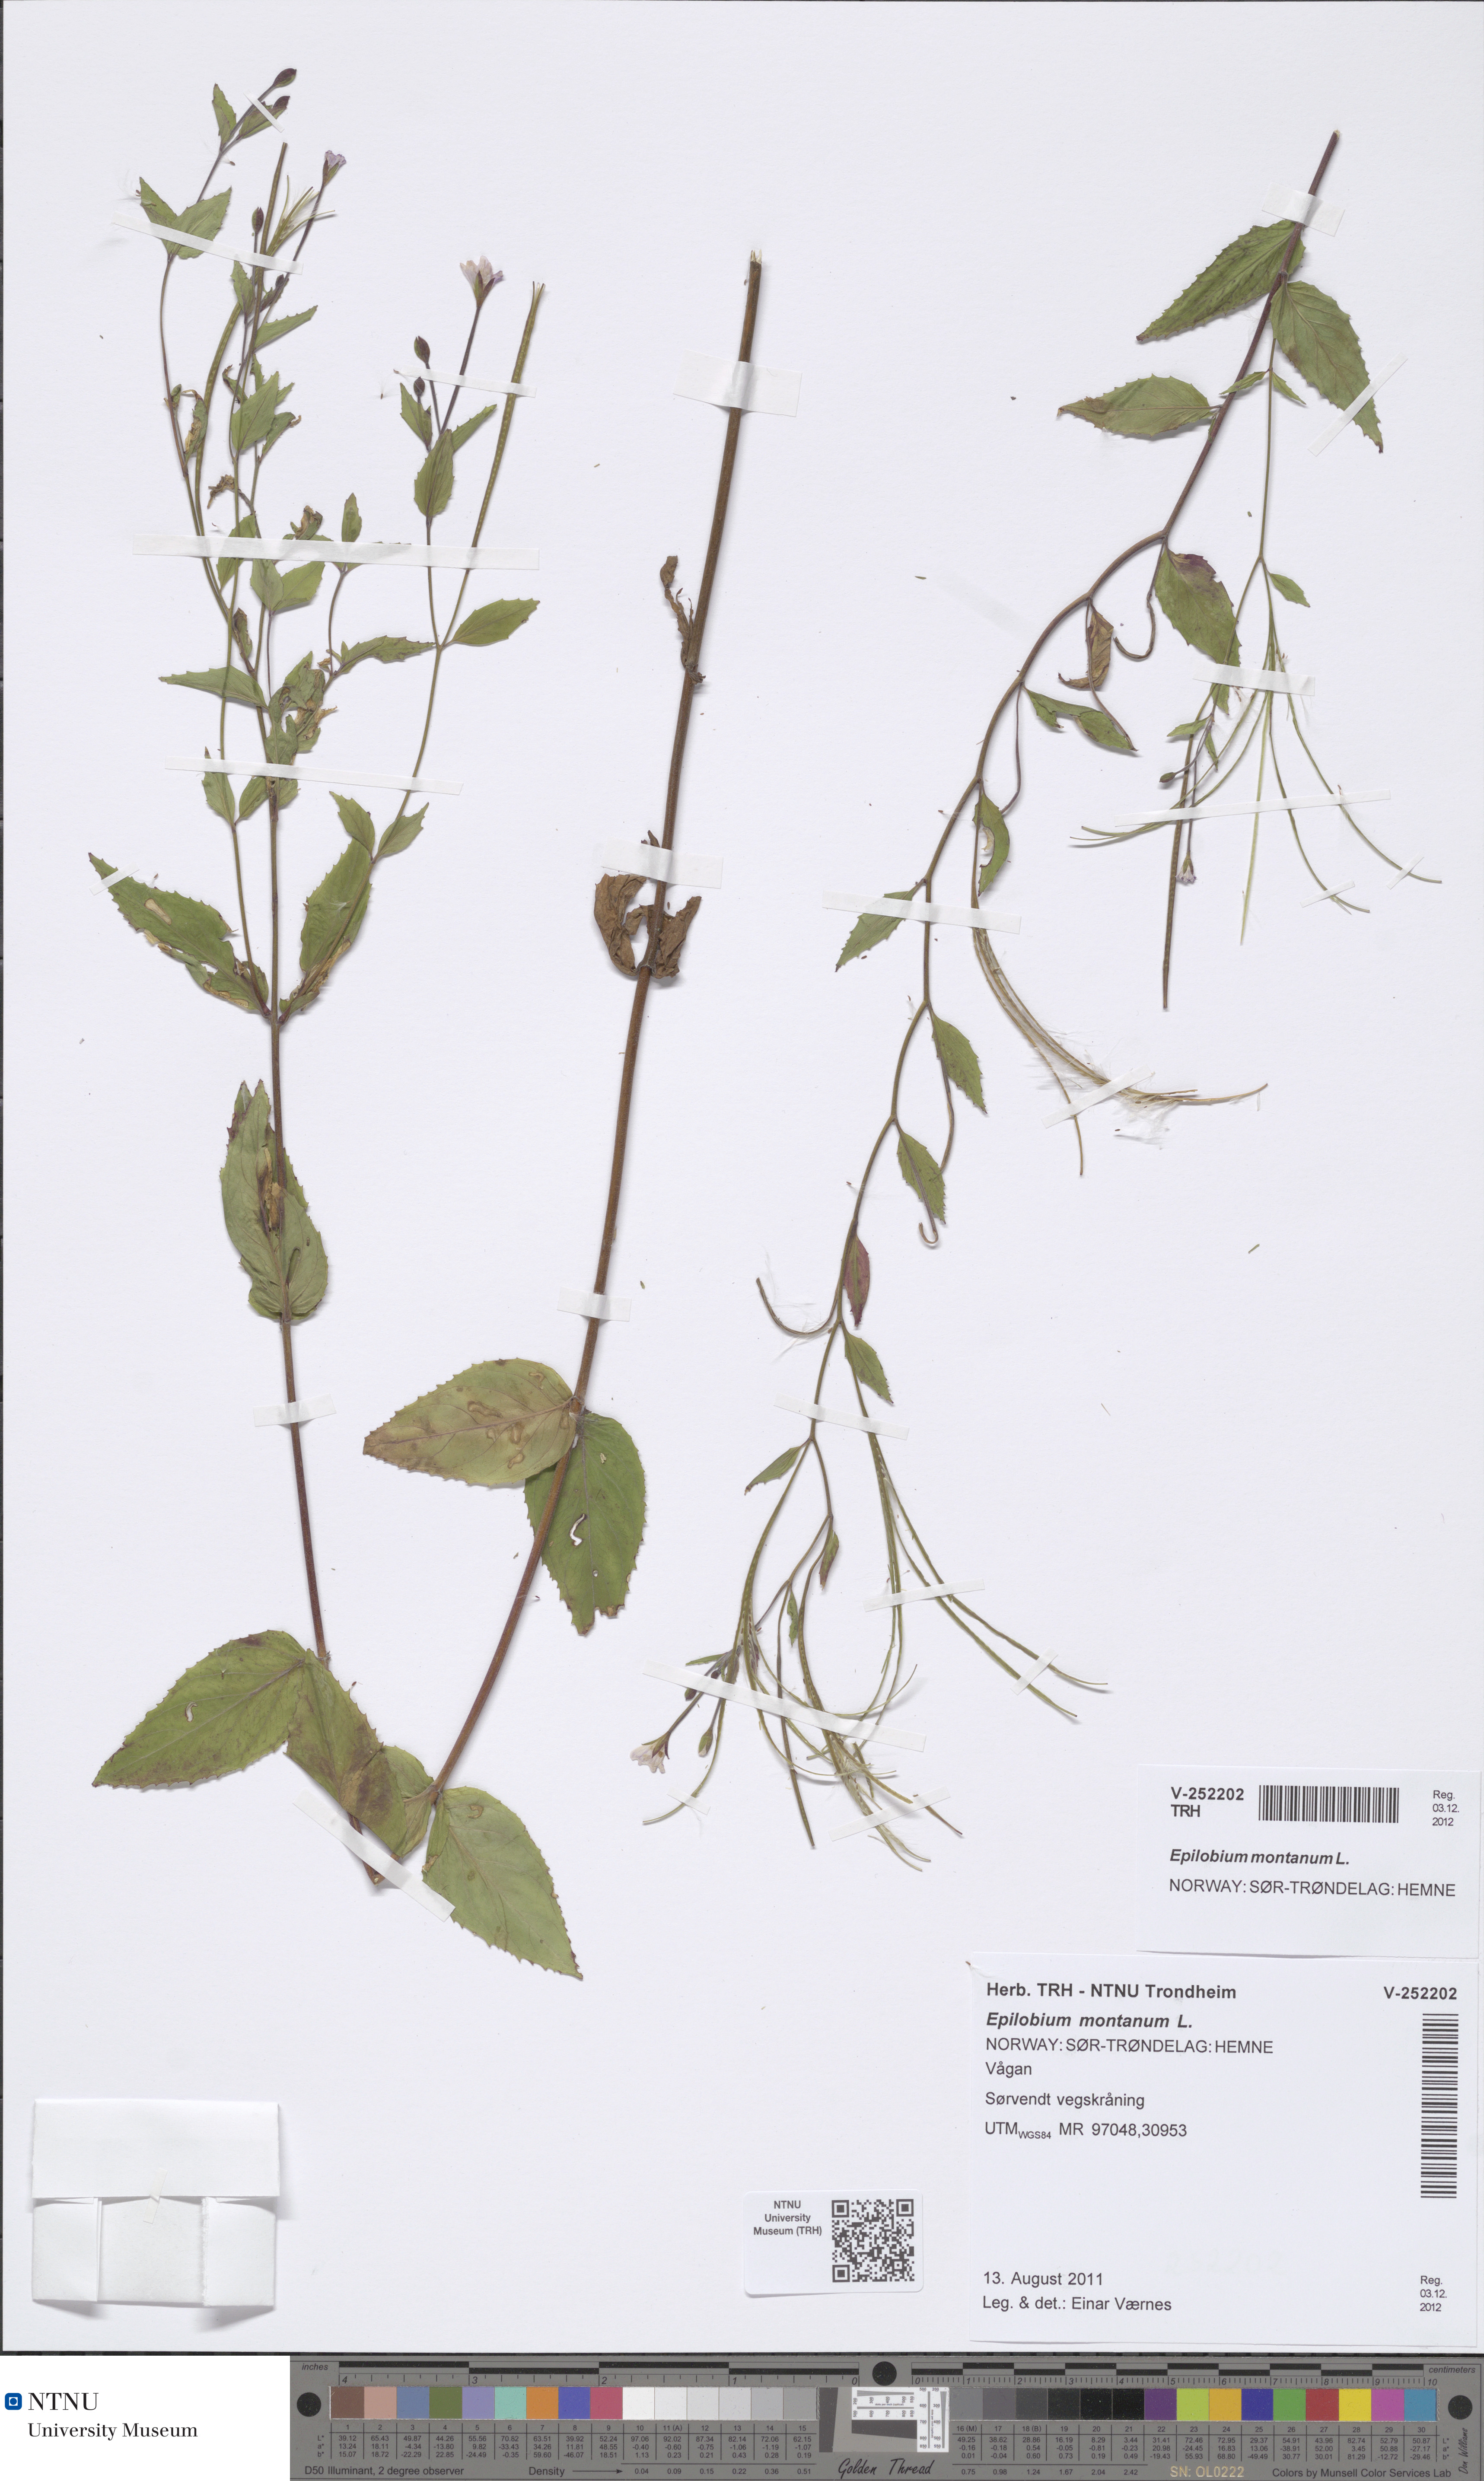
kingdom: Plantae
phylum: Tracheophyta
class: Magnoliopsida
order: Myrtales
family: Onagraceae
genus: Epilobium
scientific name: Epilobium montanum
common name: Broad-leaved willowherb
